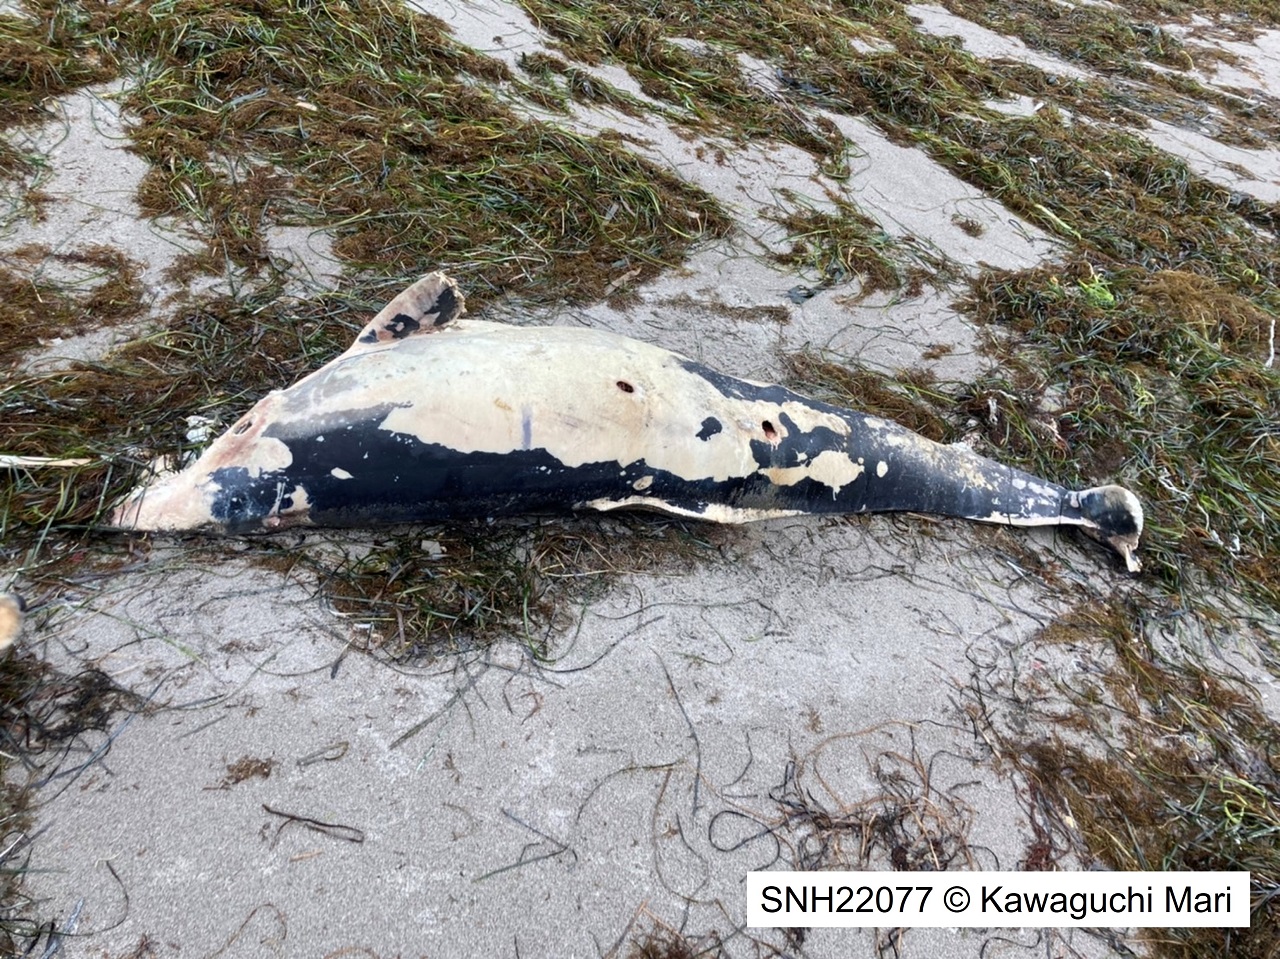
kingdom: Animalia
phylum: Chordata
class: Mammalia
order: Cetacea
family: Delphinidae
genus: Lagenorhynchus
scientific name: Lagenorhynchus obliquidens
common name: Pacific white-sided dolphin
